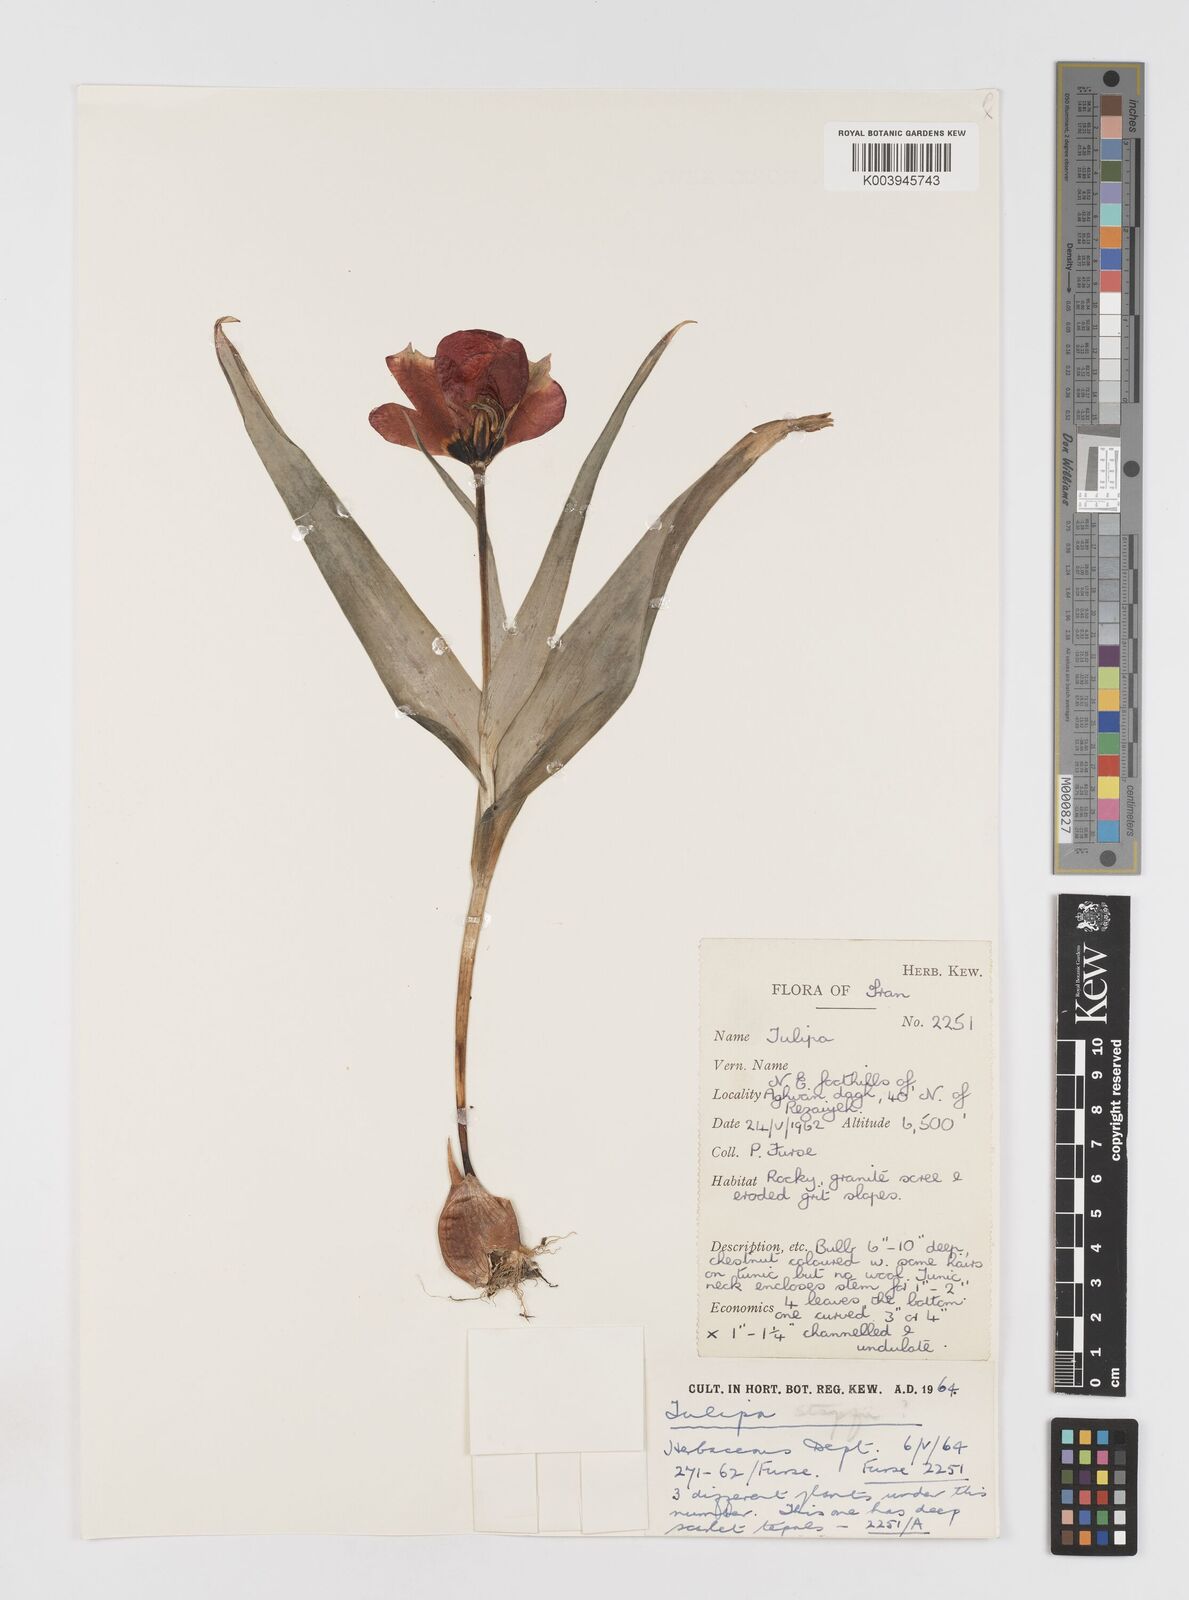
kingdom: Plantae
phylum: Tracheophyta
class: Liliopsida
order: Liliales
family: Liliaceae
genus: Tulipa
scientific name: Tulipa armena
